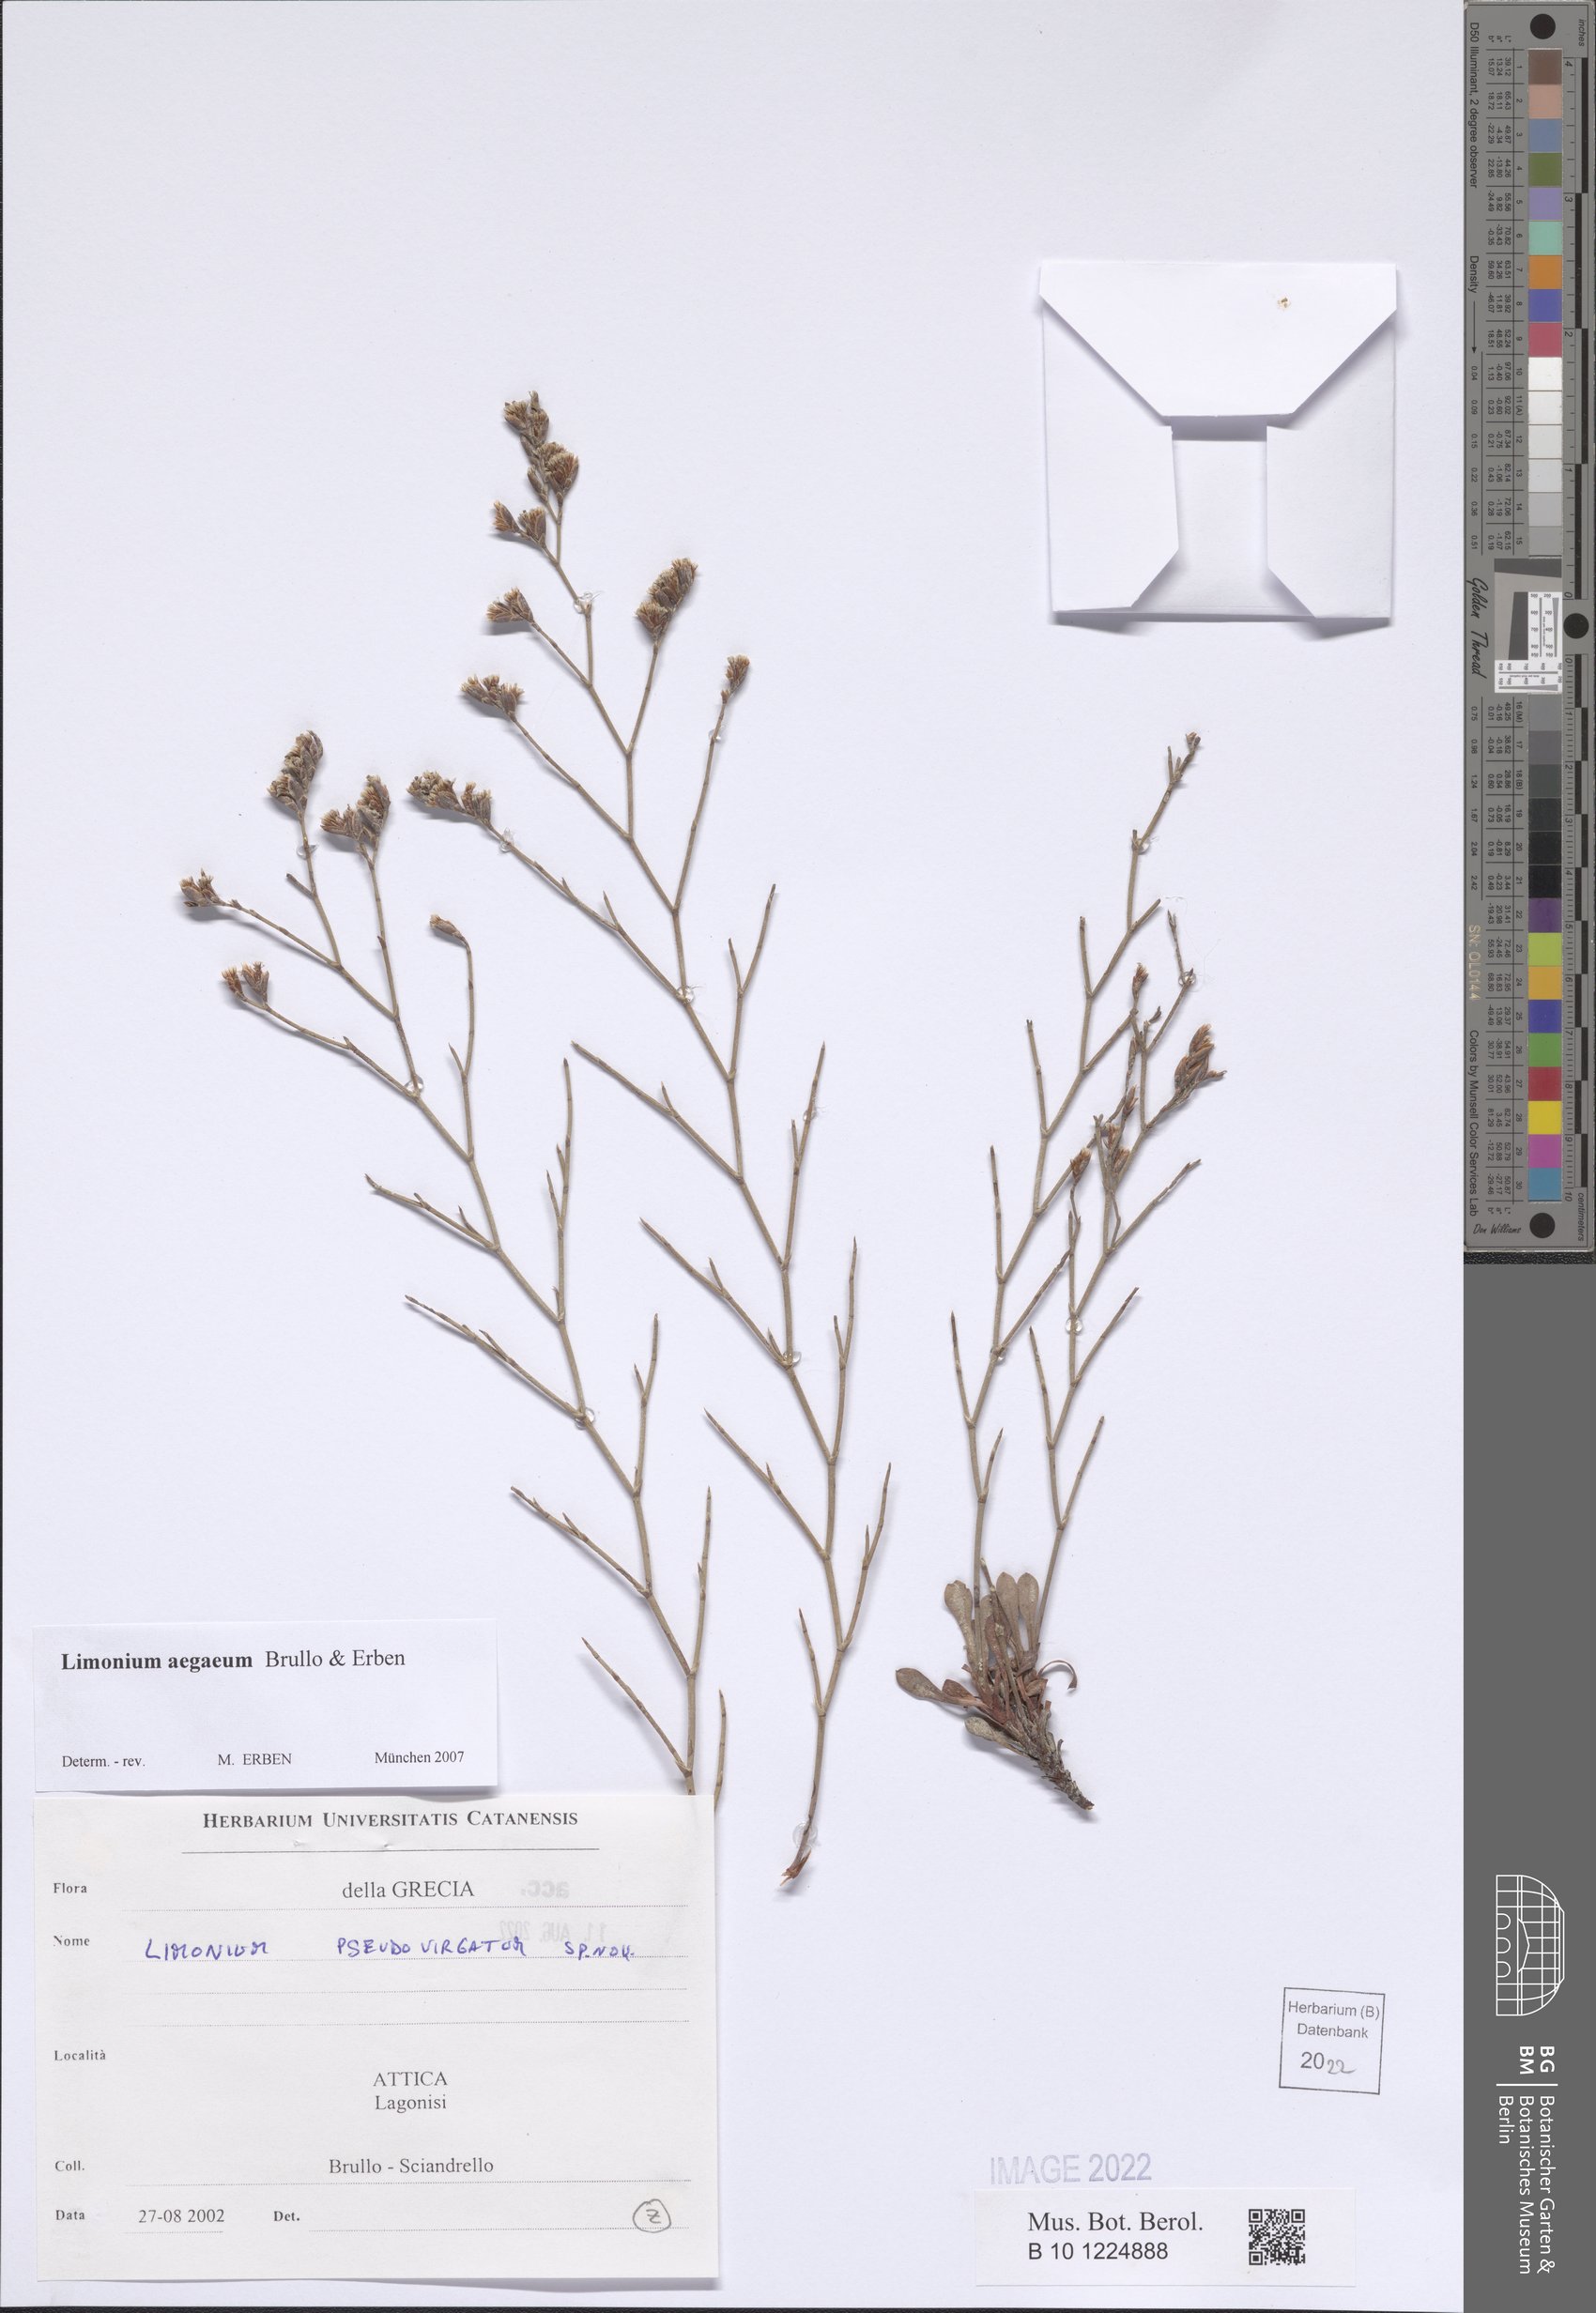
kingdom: Plantae
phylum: Tracheophyta
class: Magnoliopsida
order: Caryophyllales
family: Plumbaginaceae
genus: Limonium
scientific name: Limonium aegaeum
